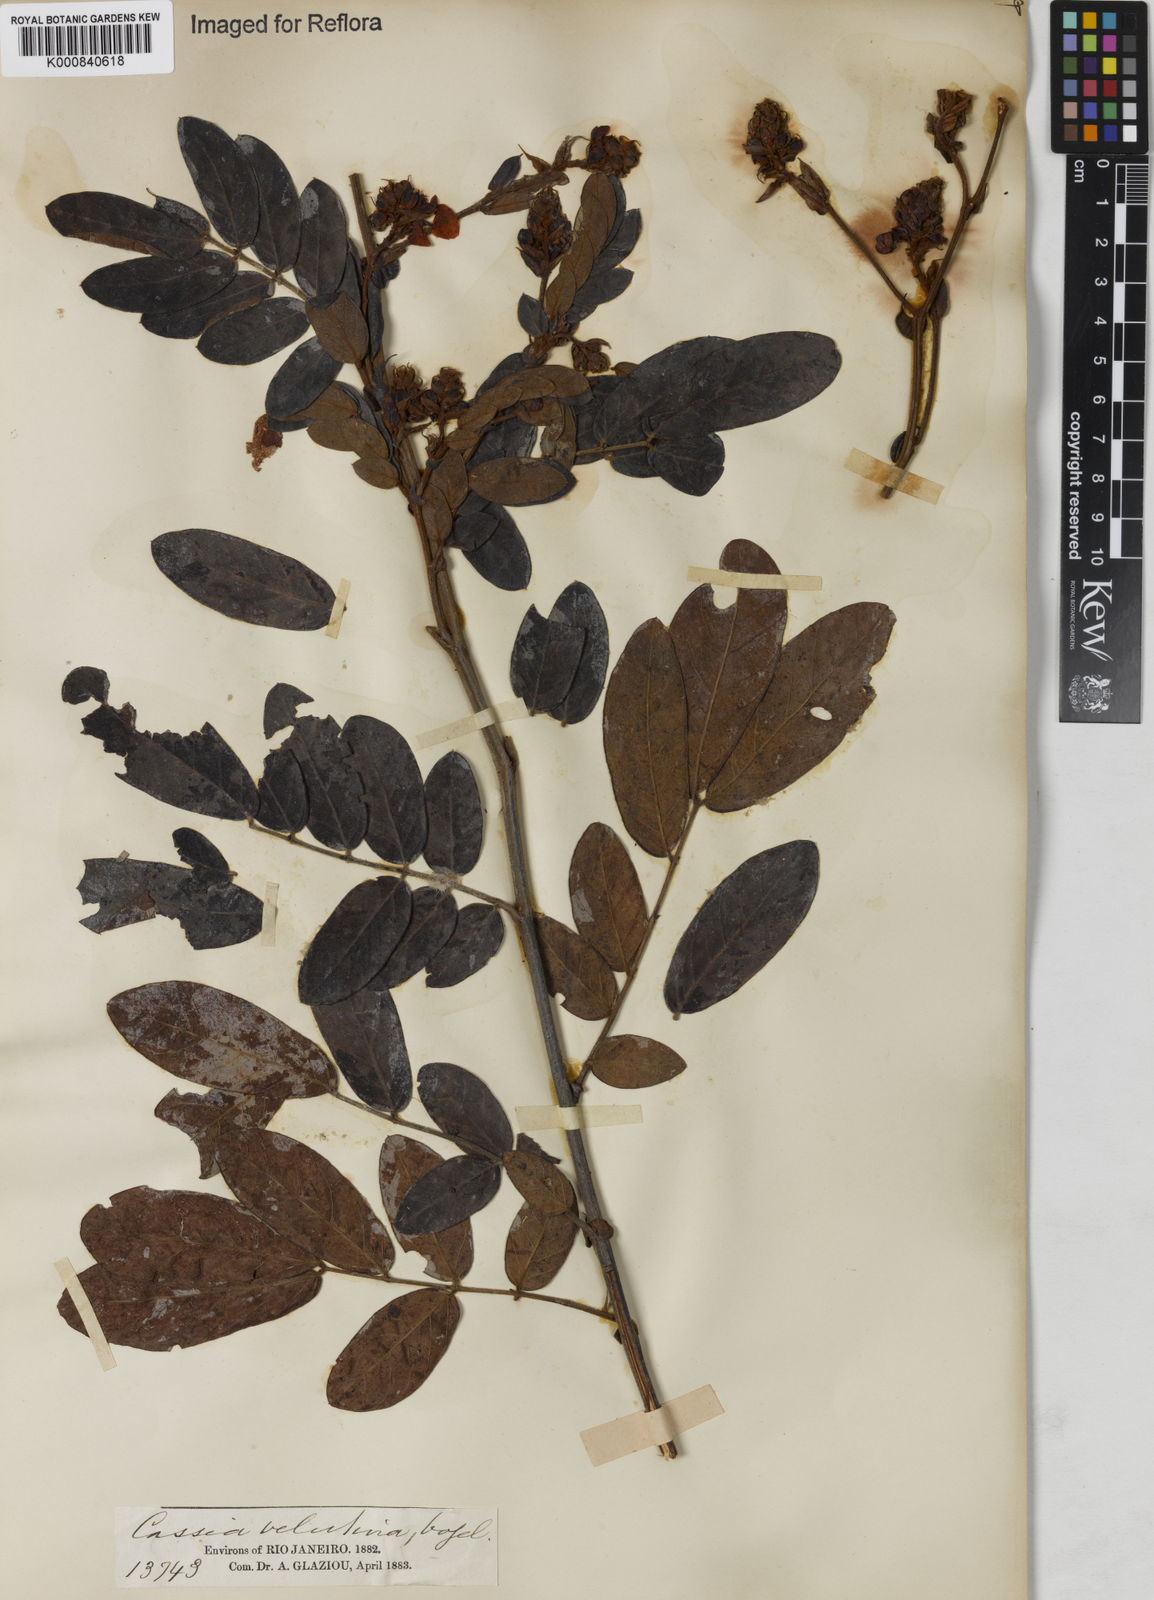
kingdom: Plantae
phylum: Tracheophyta
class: Magnoliopsida
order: Fabales
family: Fabaceae
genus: Senna
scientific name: Senna velutina
